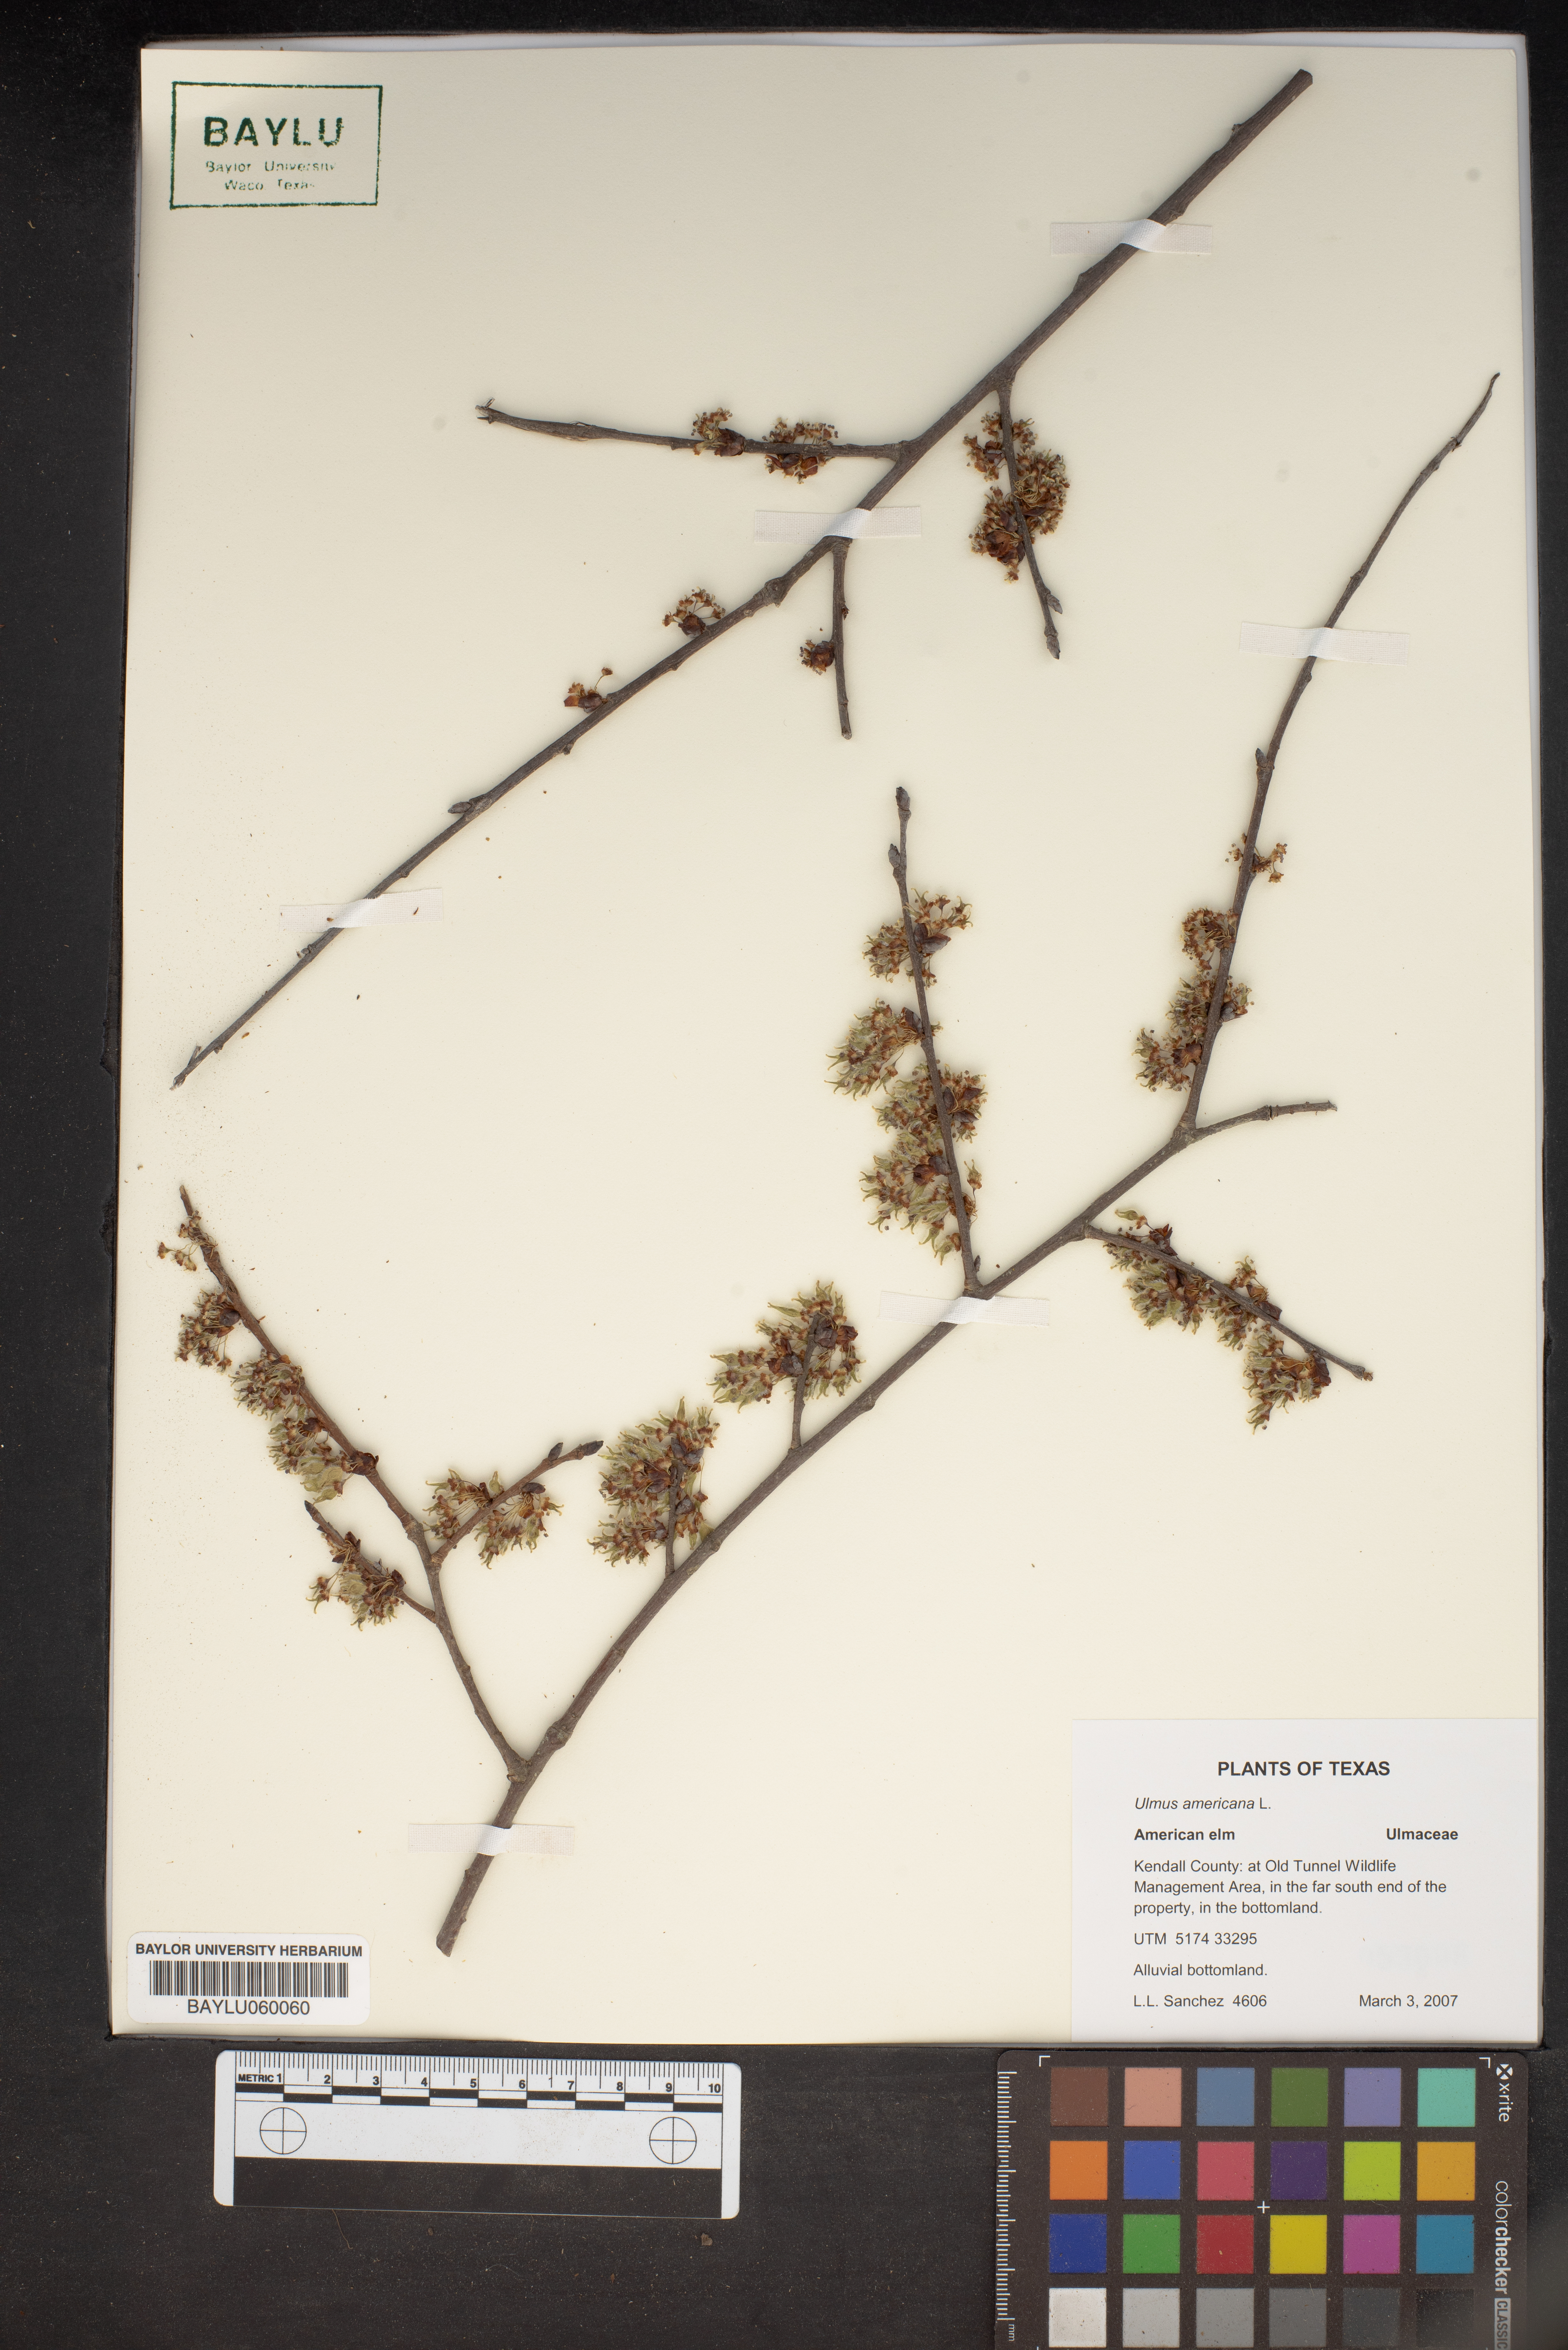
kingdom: Plantae
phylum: Tracheophyta
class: Magnoliopsida
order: Rosales
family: Ulmaceae
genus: Ulmus
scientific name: Ulmus americana
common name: American elm
